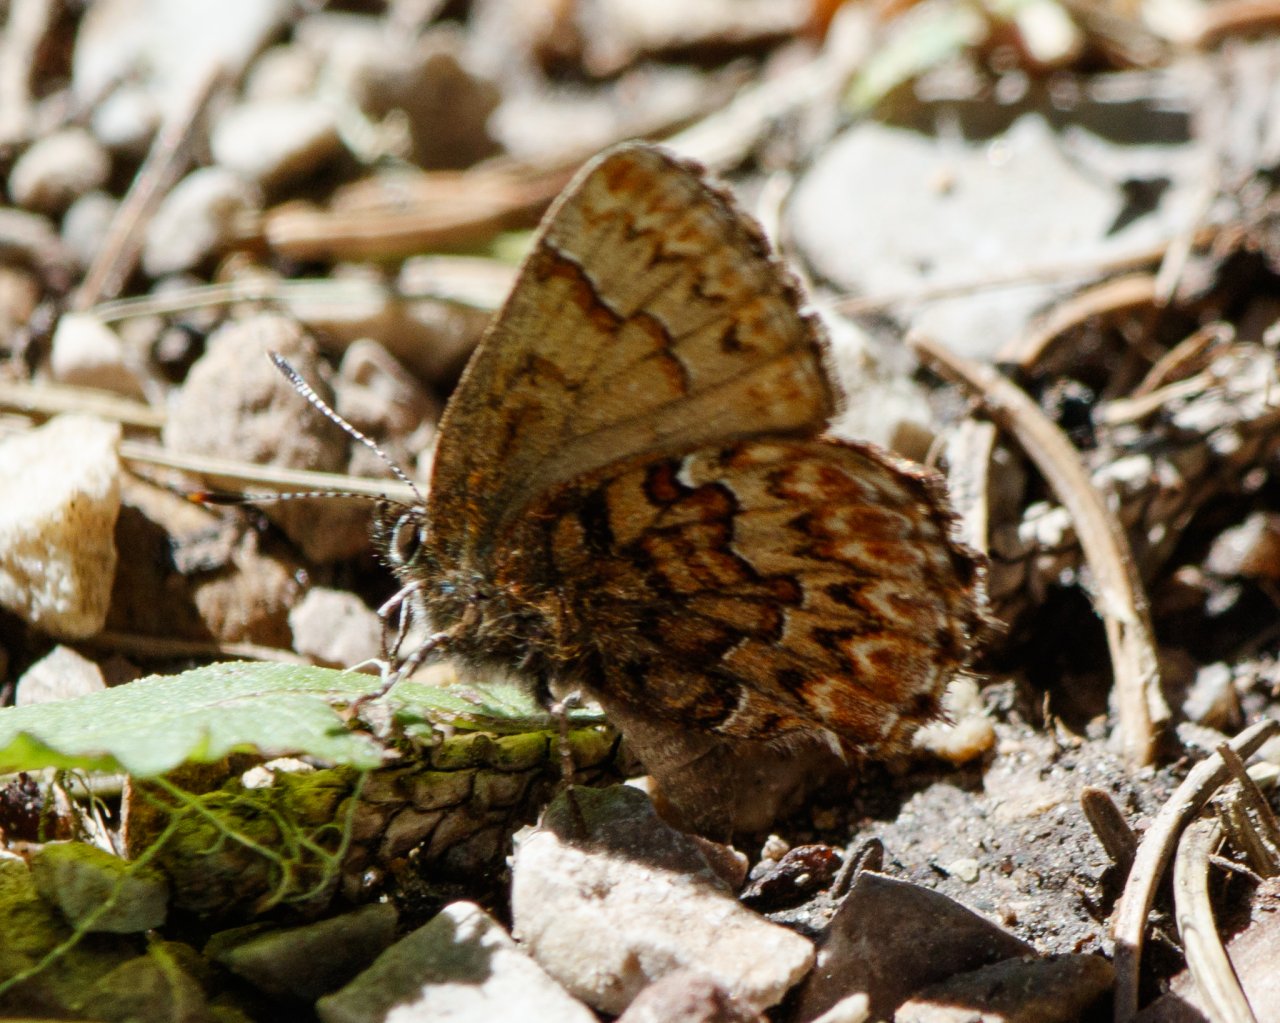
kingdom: Animalia
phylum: Arthropoda
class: Insecta
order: Lepidoptera
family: Lycaenidae
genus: Incisalia
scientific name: Incisalia eryphon
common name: Western Pine Elfin
